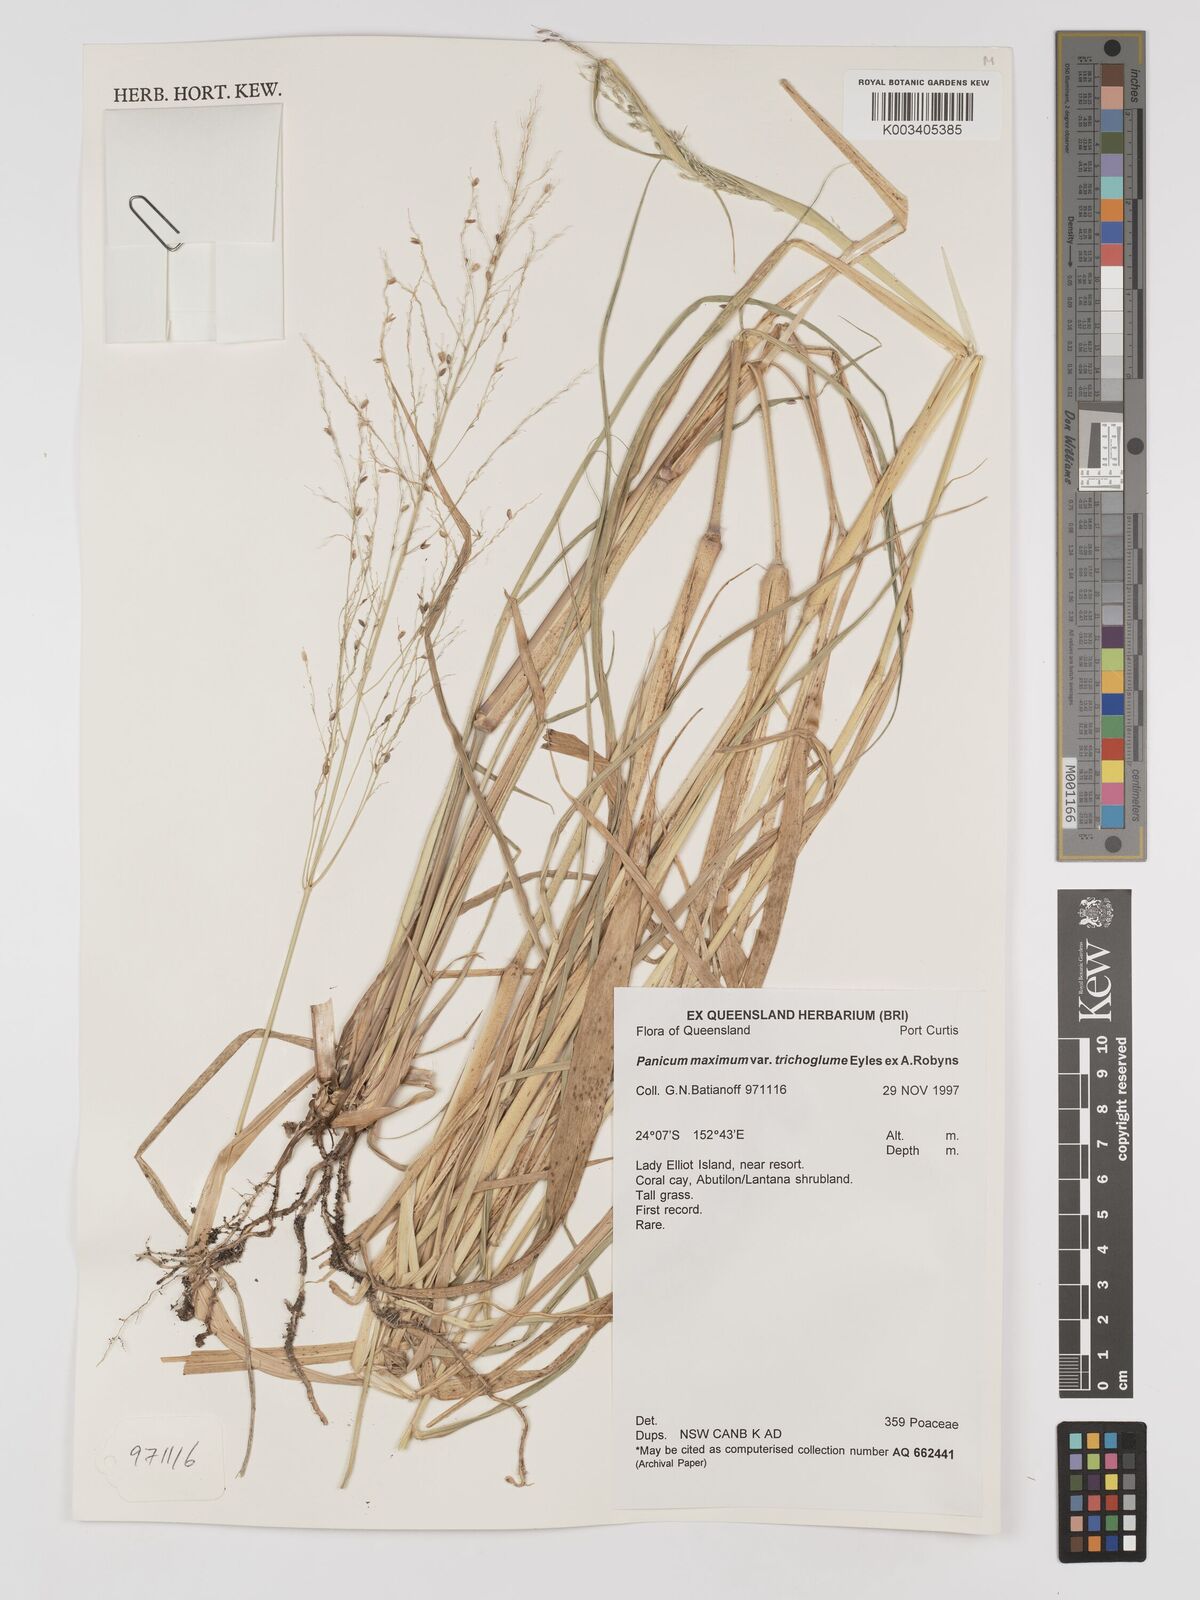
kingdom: Plantae
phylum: Tracheophyta
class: Liliopsida
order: Poales
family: Poaceae
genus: Megathyrsus
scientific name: Megathyrsus maximus
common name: Guineagrass
